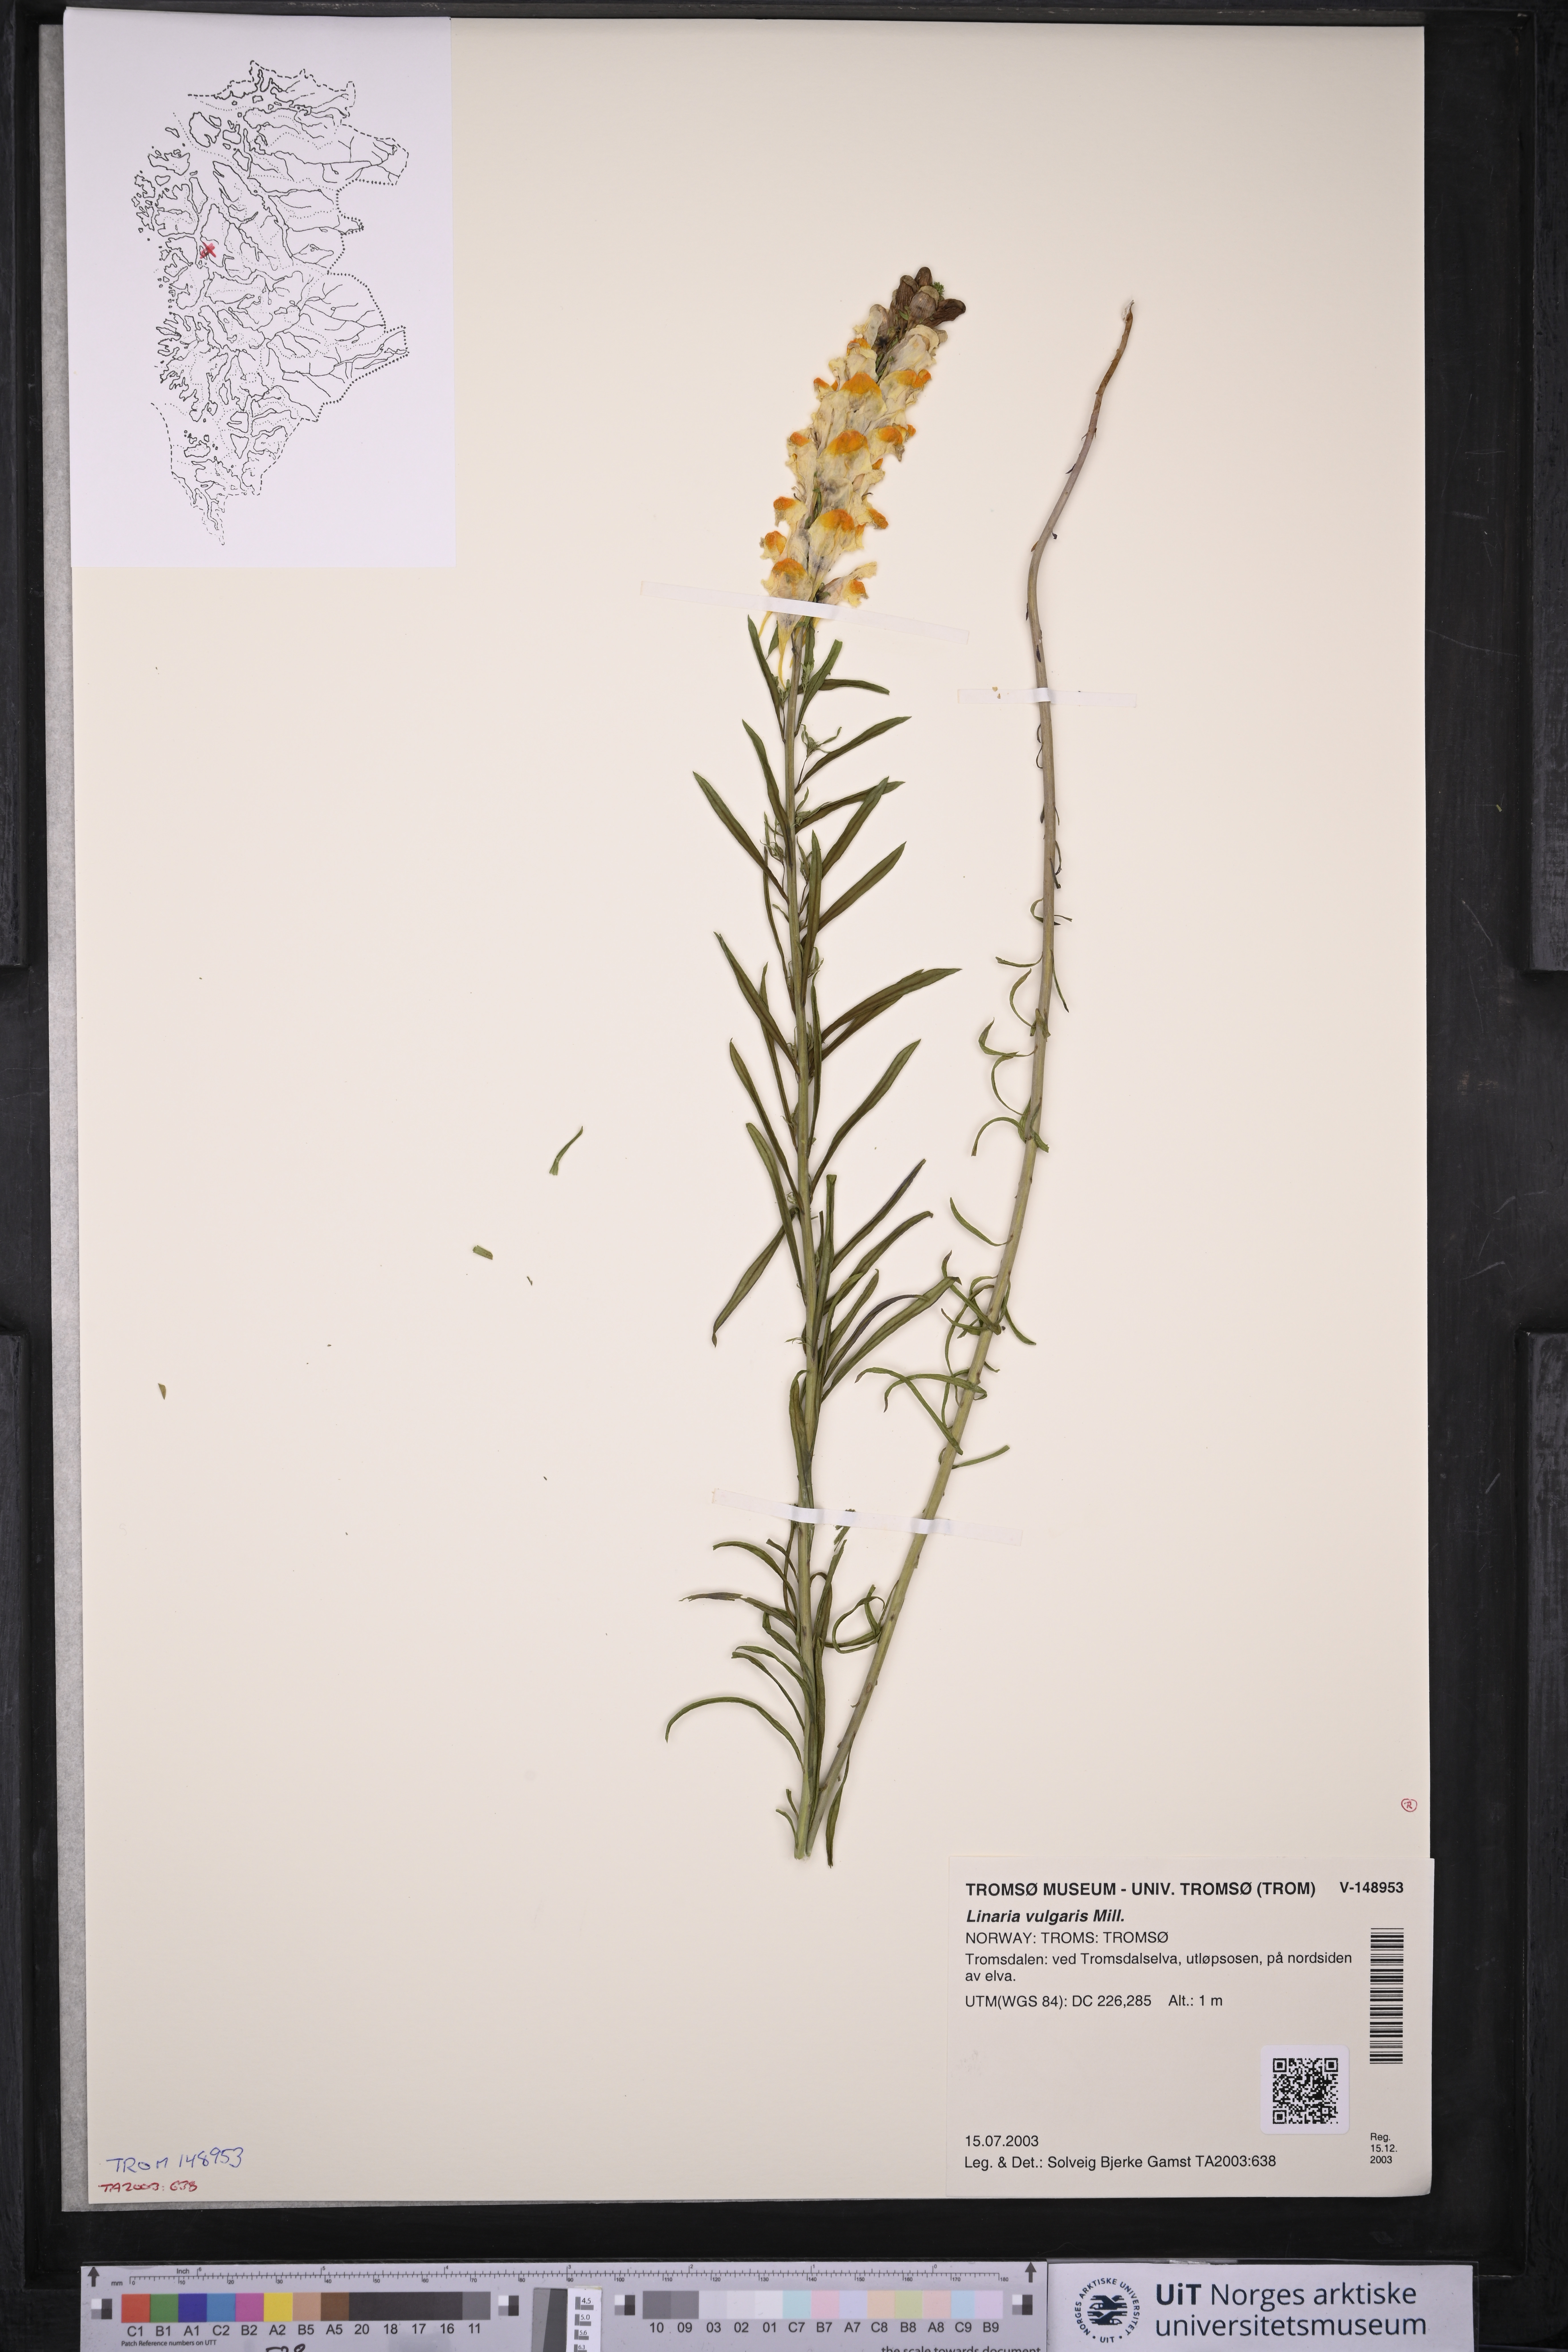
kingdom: Plantae
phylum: Tracheophyta
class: Magnoliopsida
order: Lamiales
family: Plantaginaceae
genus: Linaria
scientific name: Linaria vulgaris
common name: Butter and eggs
